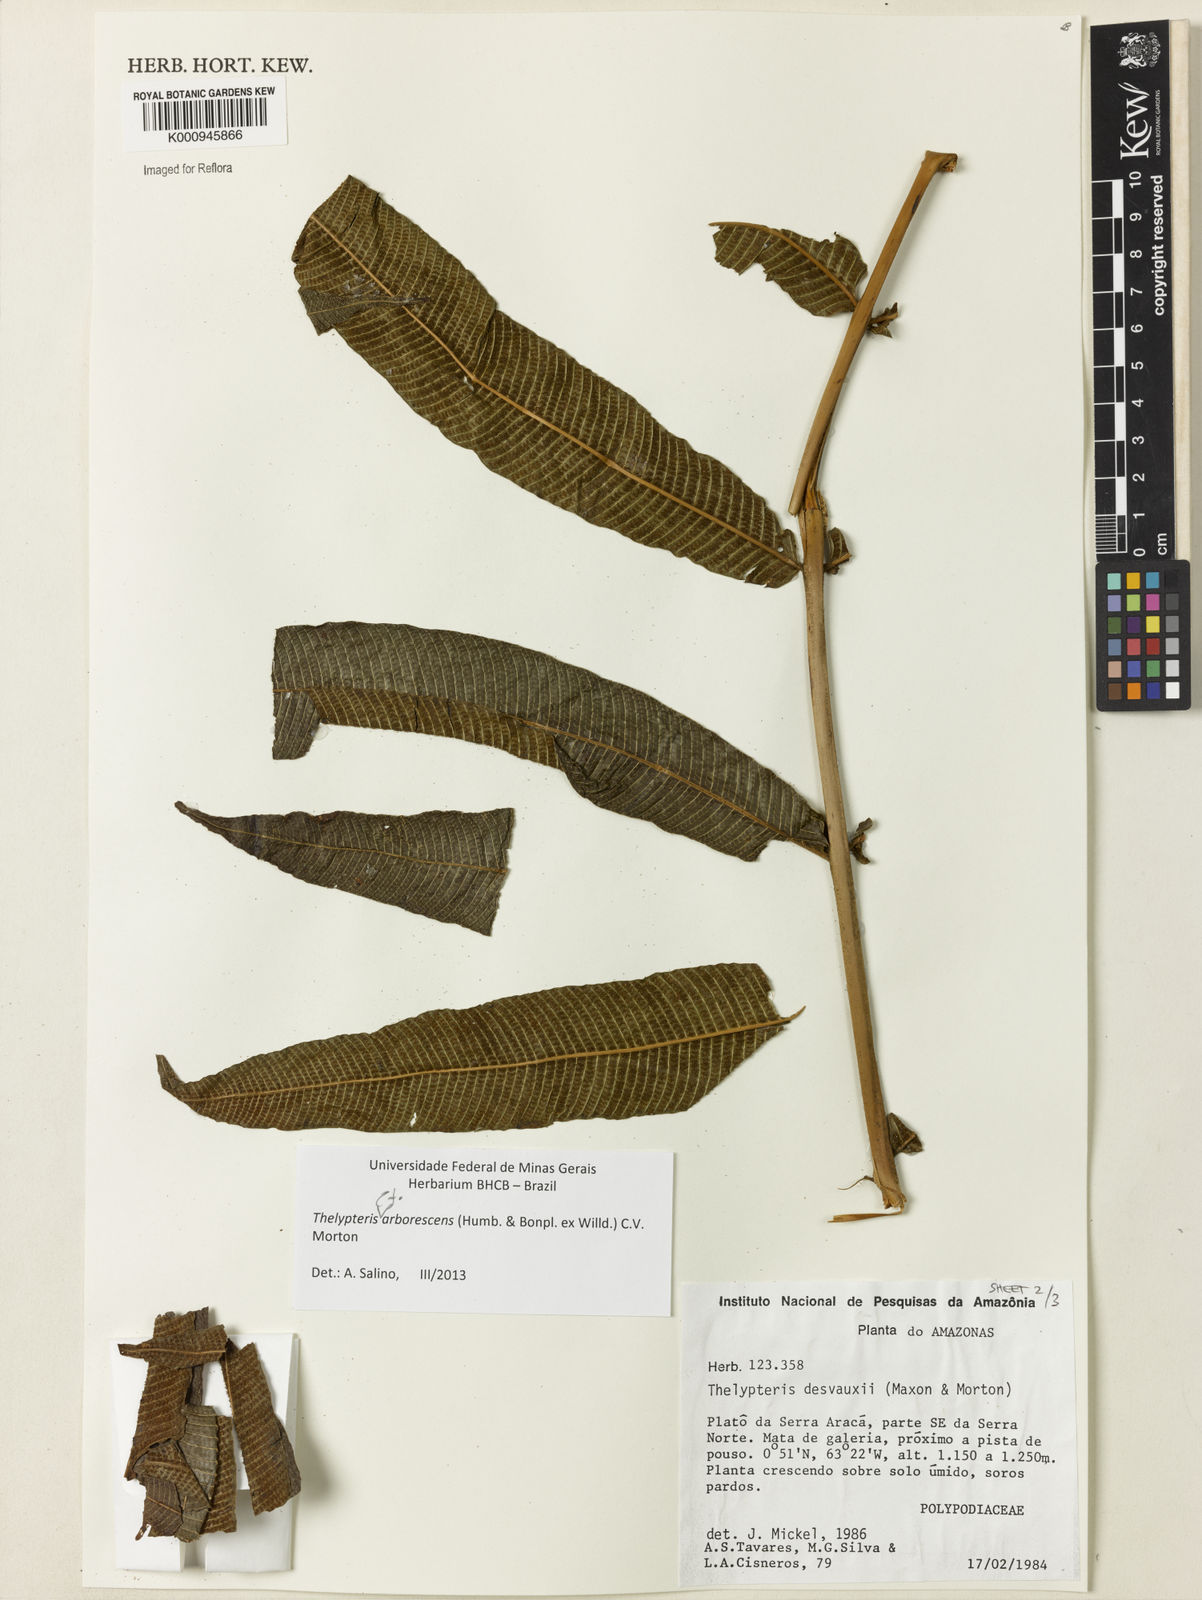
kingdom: Plantae
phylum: Tracheophyta
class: Polypodiopsida
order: Polypodiales
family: Thelypteridaceae
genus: Meniscium
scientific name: Meniscium arborescens
